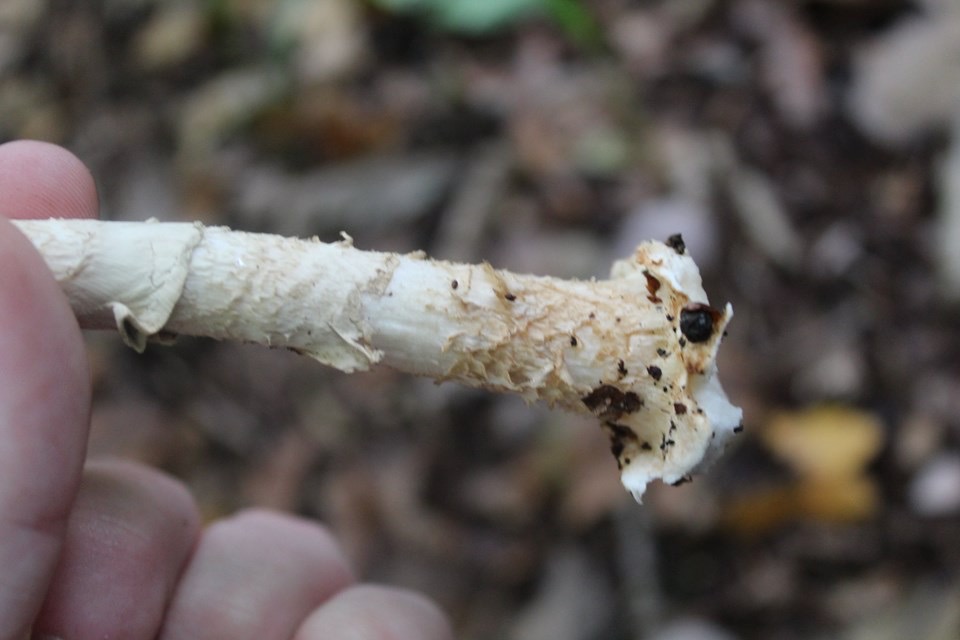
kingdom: Fungi
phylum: Basidiomycota
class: Agaricomycetes
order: Agaricales
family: Amanitaceae
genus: Amanita
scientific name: Amanita citrina
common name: kugleknoldet fluesvamp
